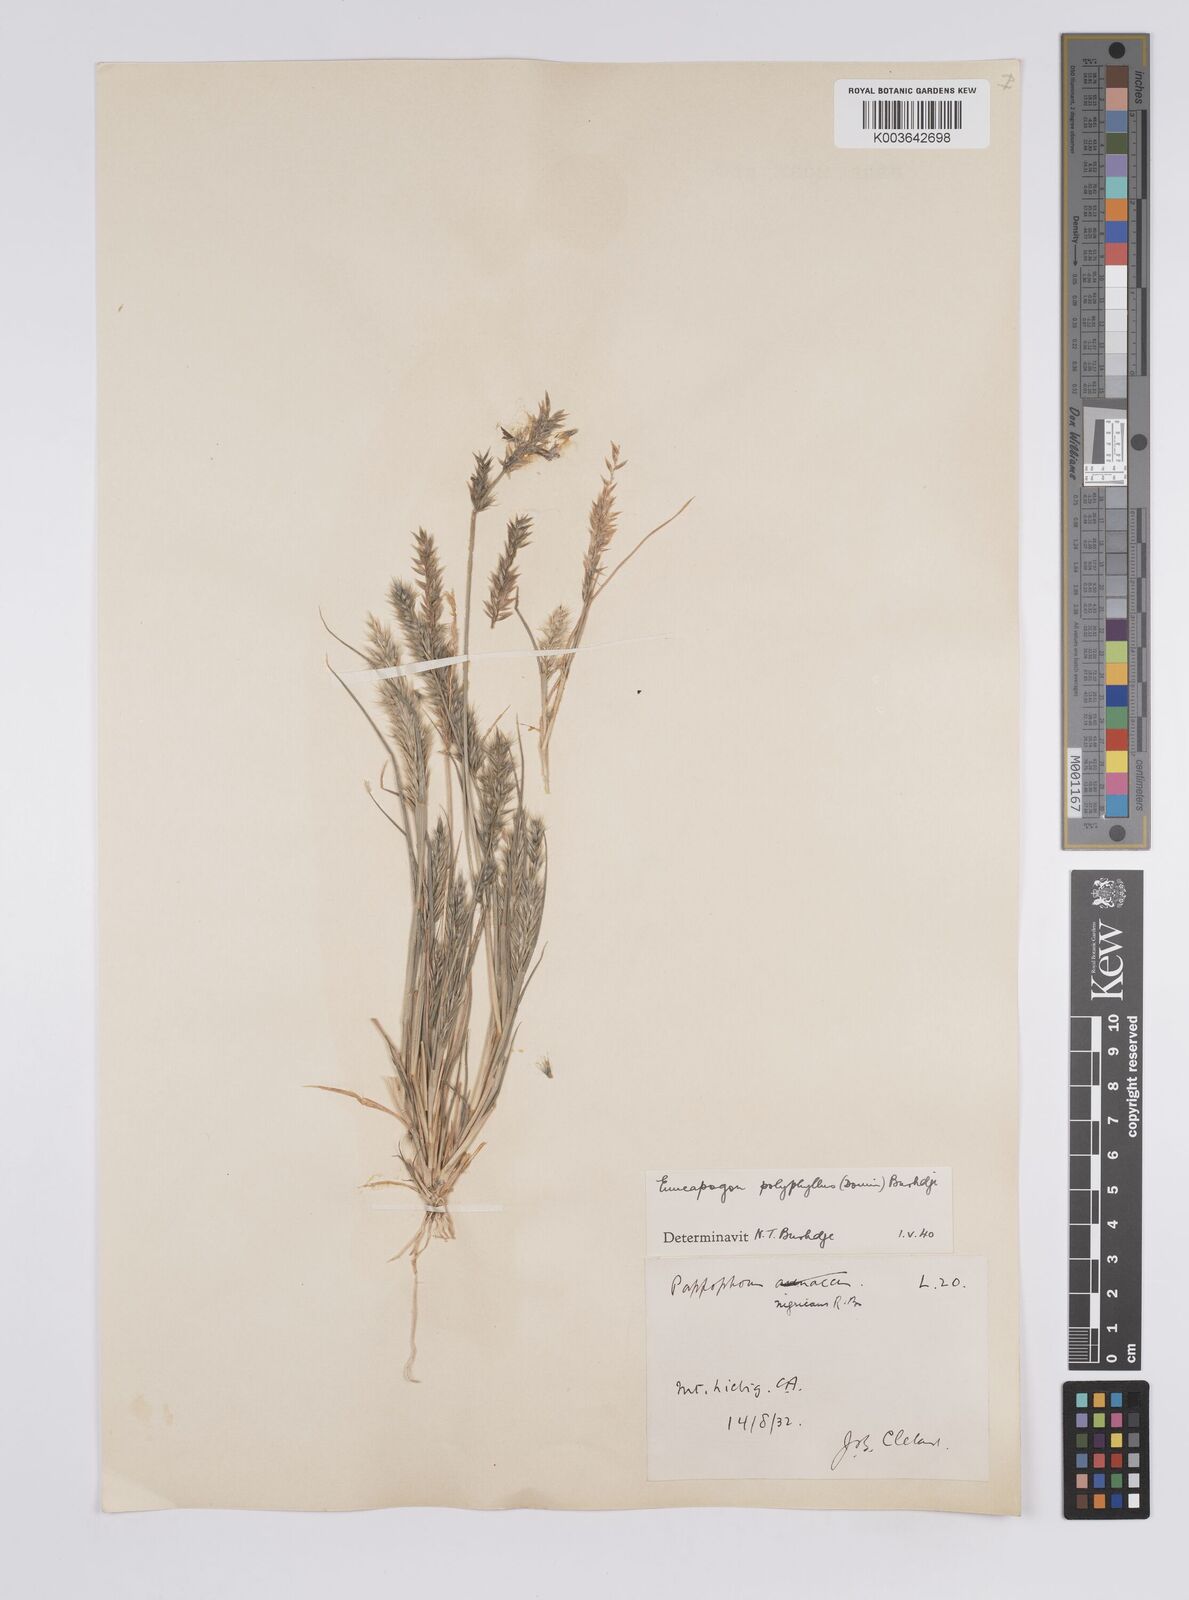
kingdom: Plantae
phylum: Tracheophyta
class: Liliopsida
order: Poales
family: Poaceae
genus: Enneapogon
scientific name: Enneapogon polyphyllus
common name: Leafy nineawn
